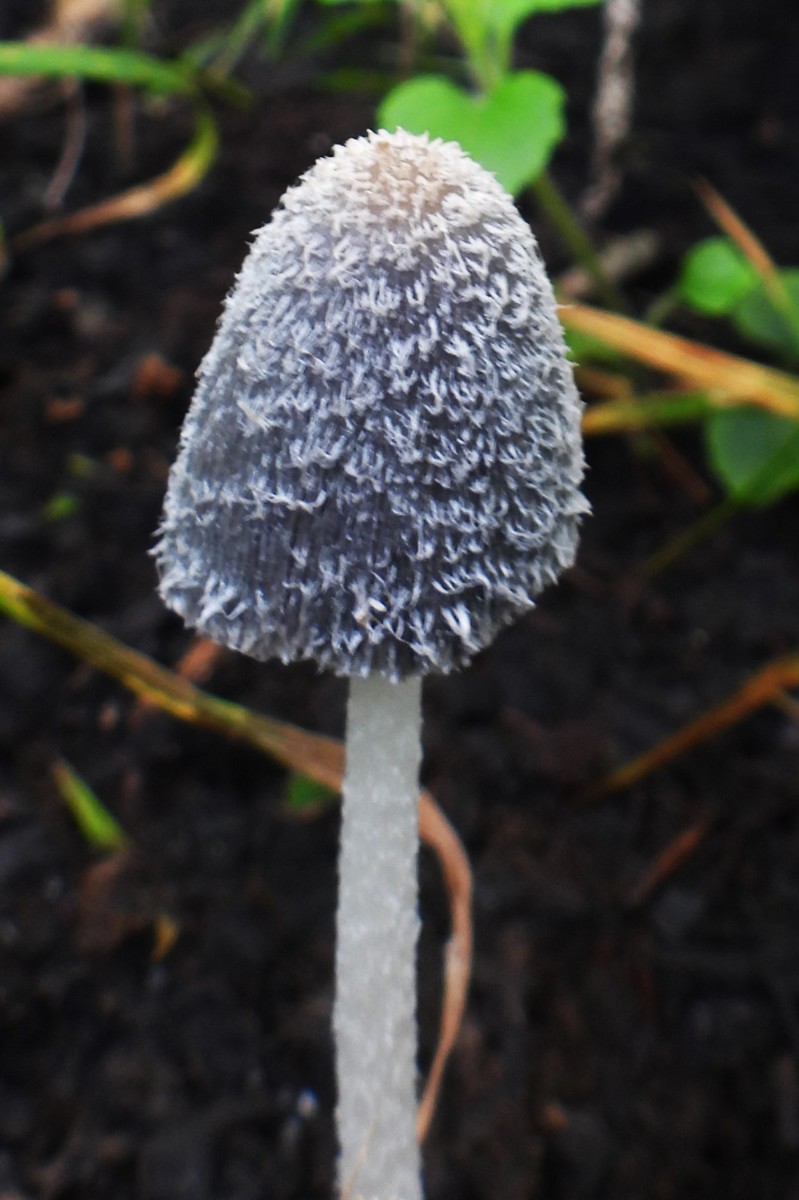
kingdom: Fungi
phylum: Basidiomycota
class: Agaricomycetes
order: Agaricales
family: Psathyrellaceae
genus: Coprinopsis
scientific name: Coprinopsis lagopus
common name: dunstokket blækhat
